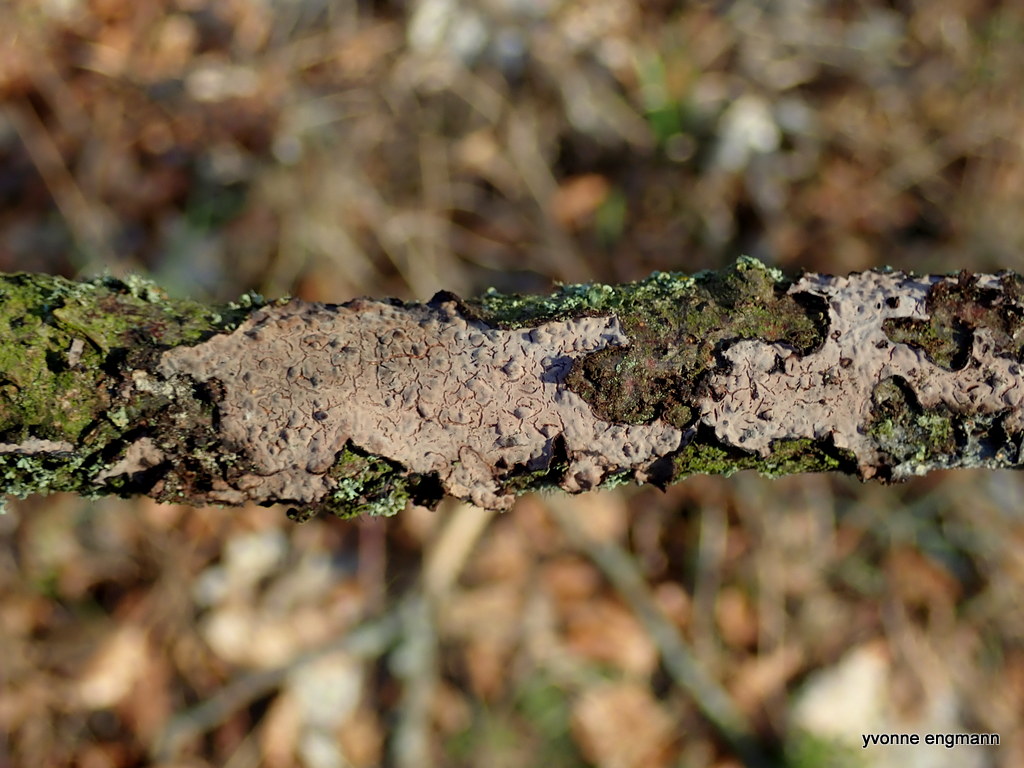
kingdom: Fungi
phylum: Basidiomycota
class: Agaricomycetes
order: Russulales
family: Peniophoraceae
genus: Peniophora
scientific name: Peniophora quercina
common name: ege-voksskind
